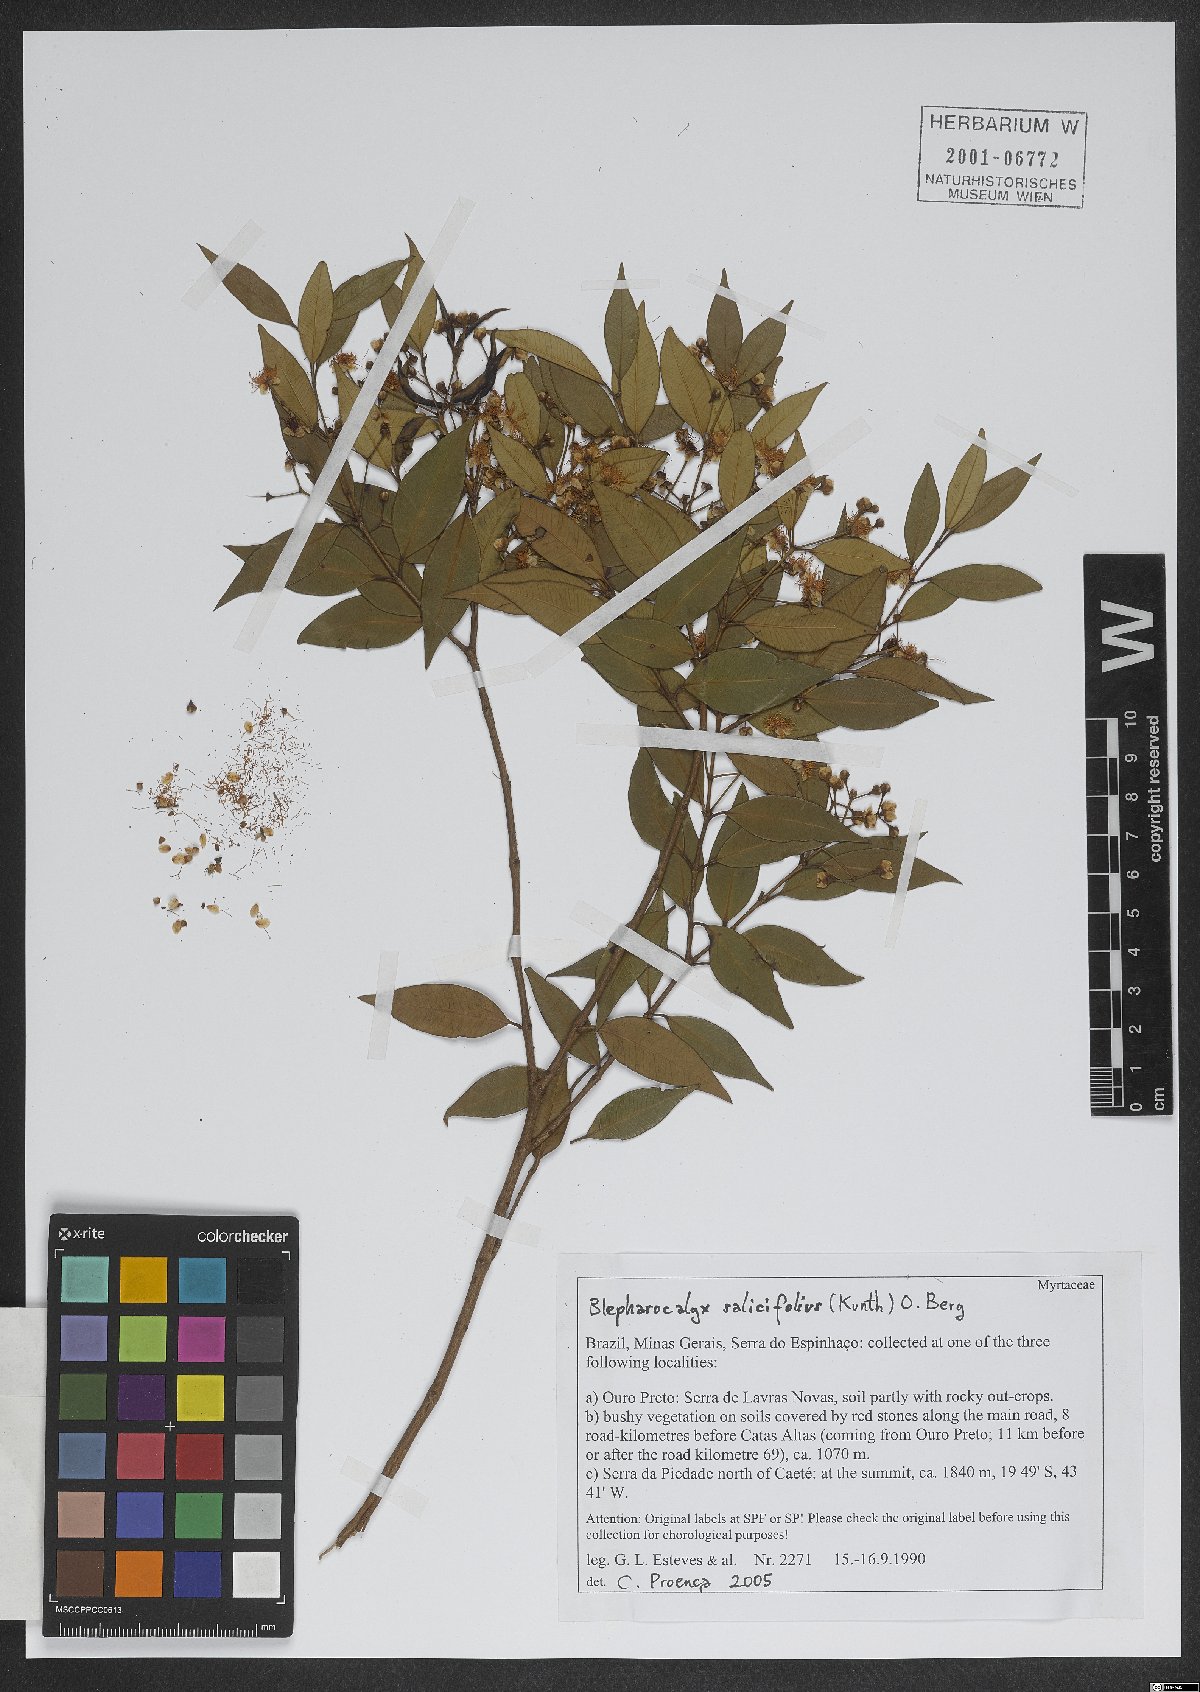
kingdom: Plantae
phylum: Tracheophyta
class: Magnoliopsida
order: Myrtales
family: Myrtaceae
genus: Blepharocalyx
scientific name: Blepharocalyx salicifolius
